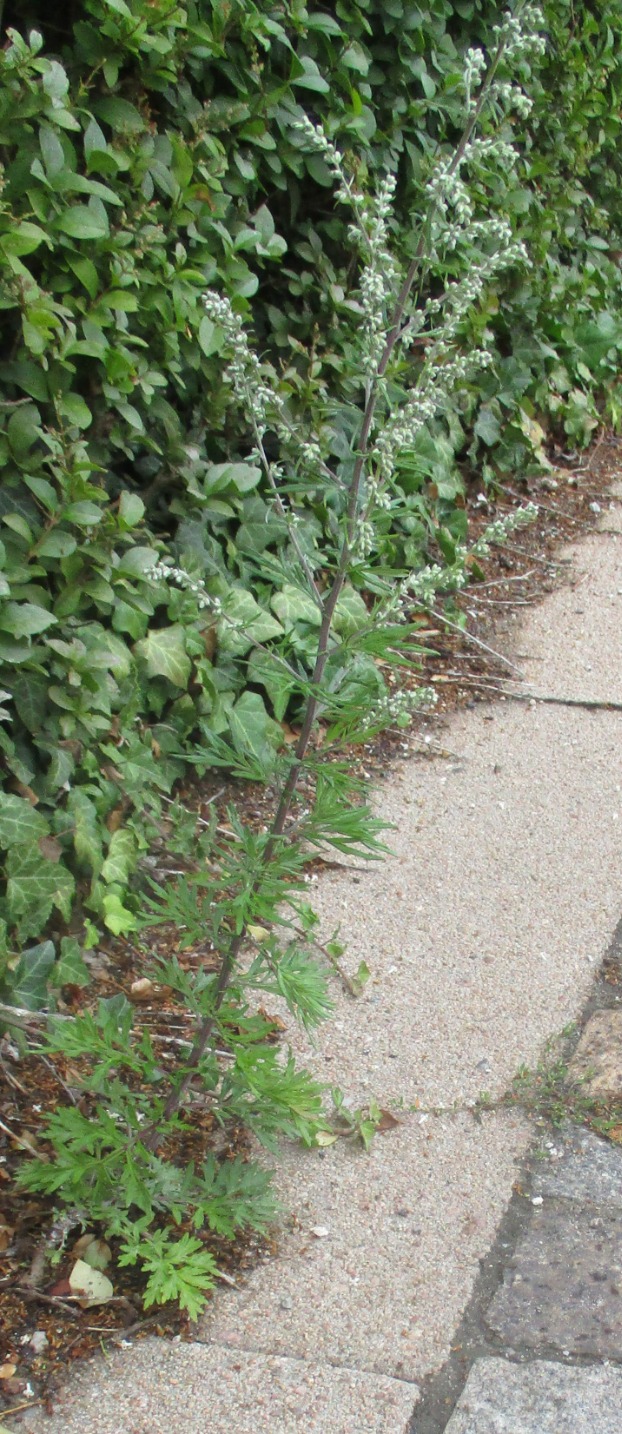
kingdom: Plantae
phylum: Tracheophyta
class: Magnoliopsida
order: Asterales
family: Asteraceae
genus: Artemisia
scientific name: Artemisia vulgaris
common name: Grå-bynke
